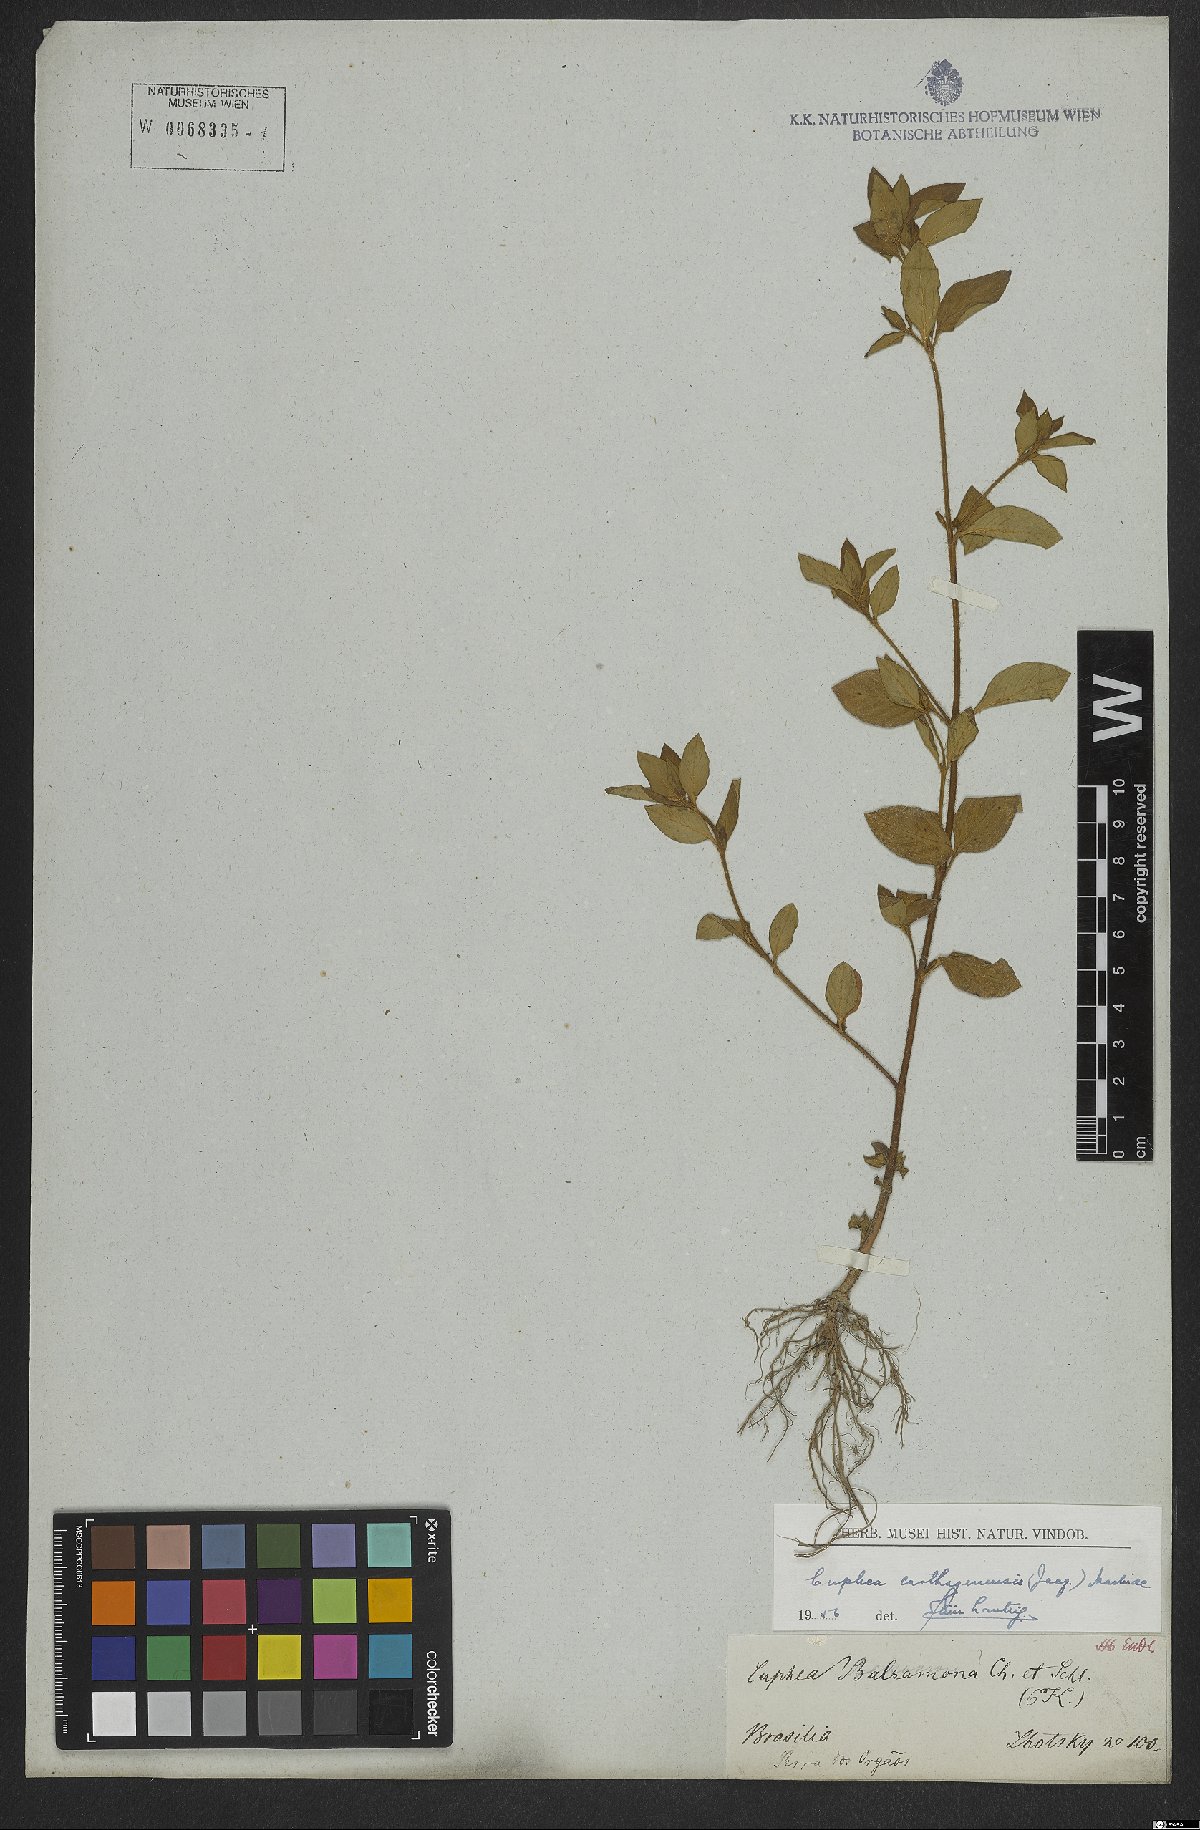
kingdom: Plantae
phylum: Tracheophyta
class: Magnoliopsida
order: Myrtales
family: Lythraceae
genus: Cuphea
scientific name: Cuphea carthagenensis
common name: Colombian waxweed
